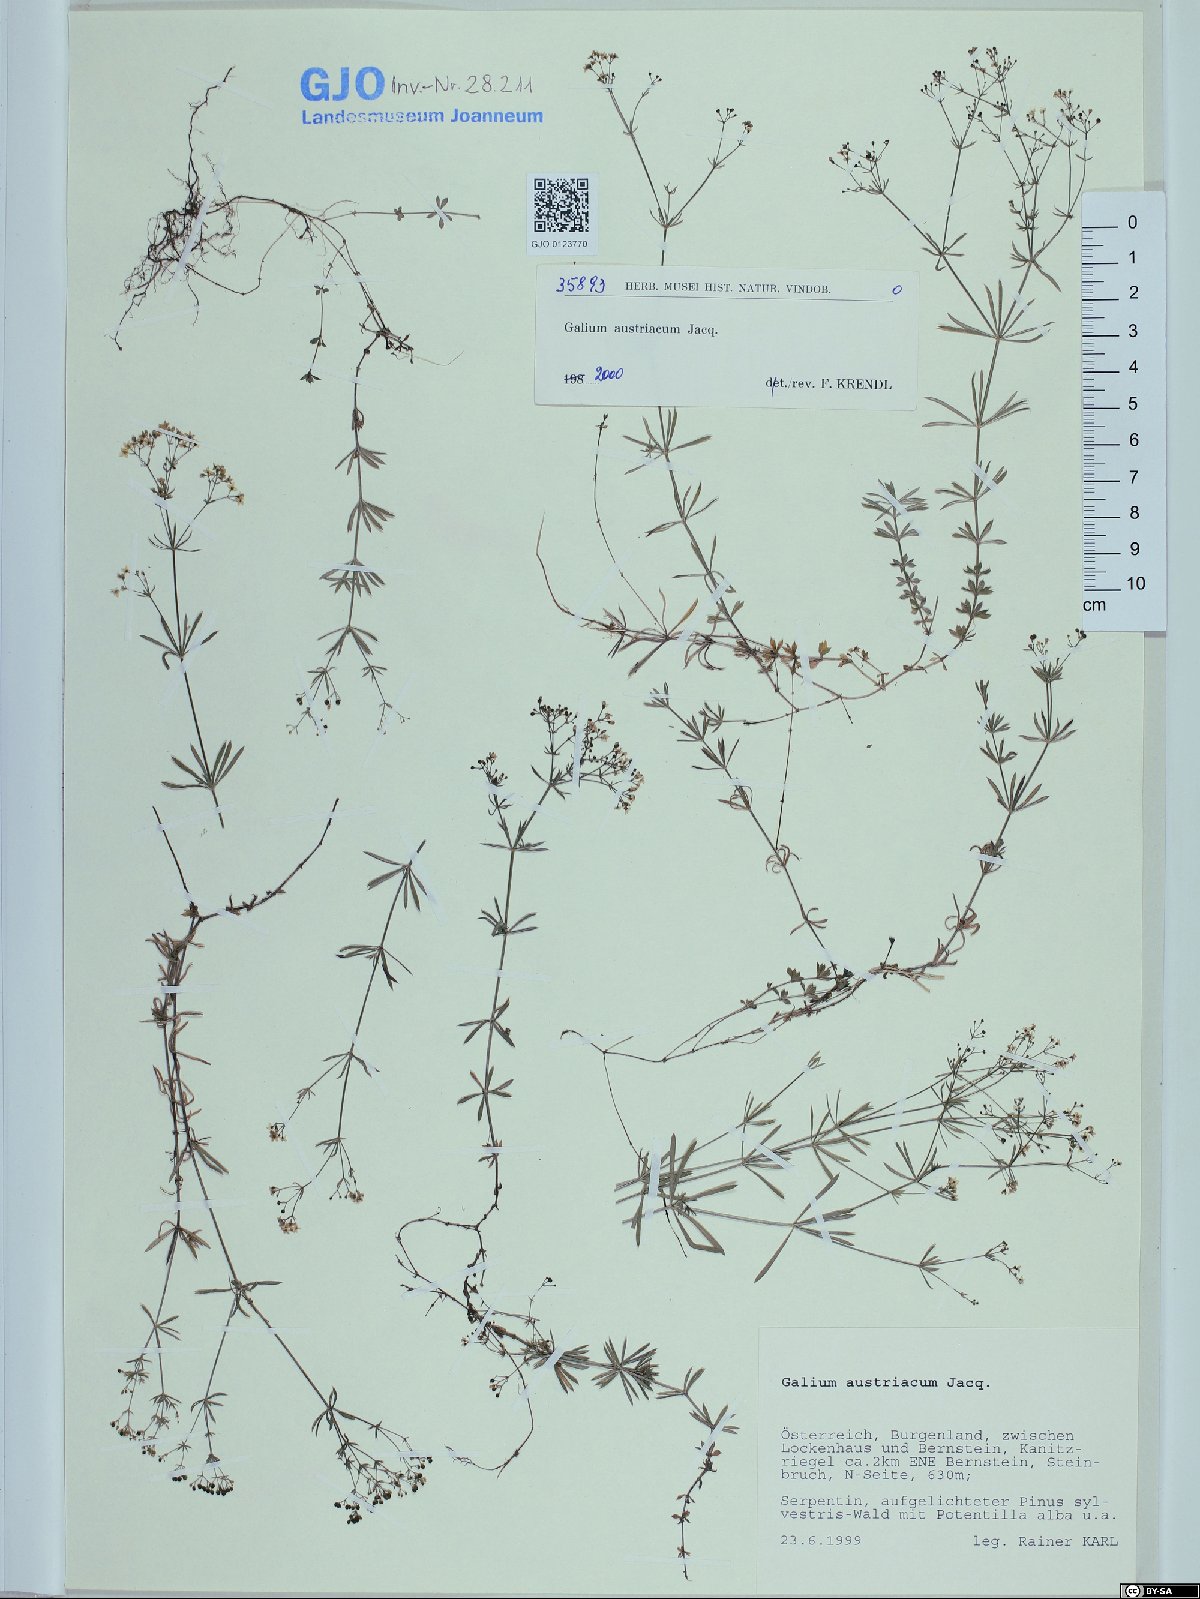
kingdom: Plantae
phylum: Tracheophyta
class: Magnoliopsida
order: Gentianales
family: Rubiaceae
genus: Galium
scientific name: Galium austriacum
